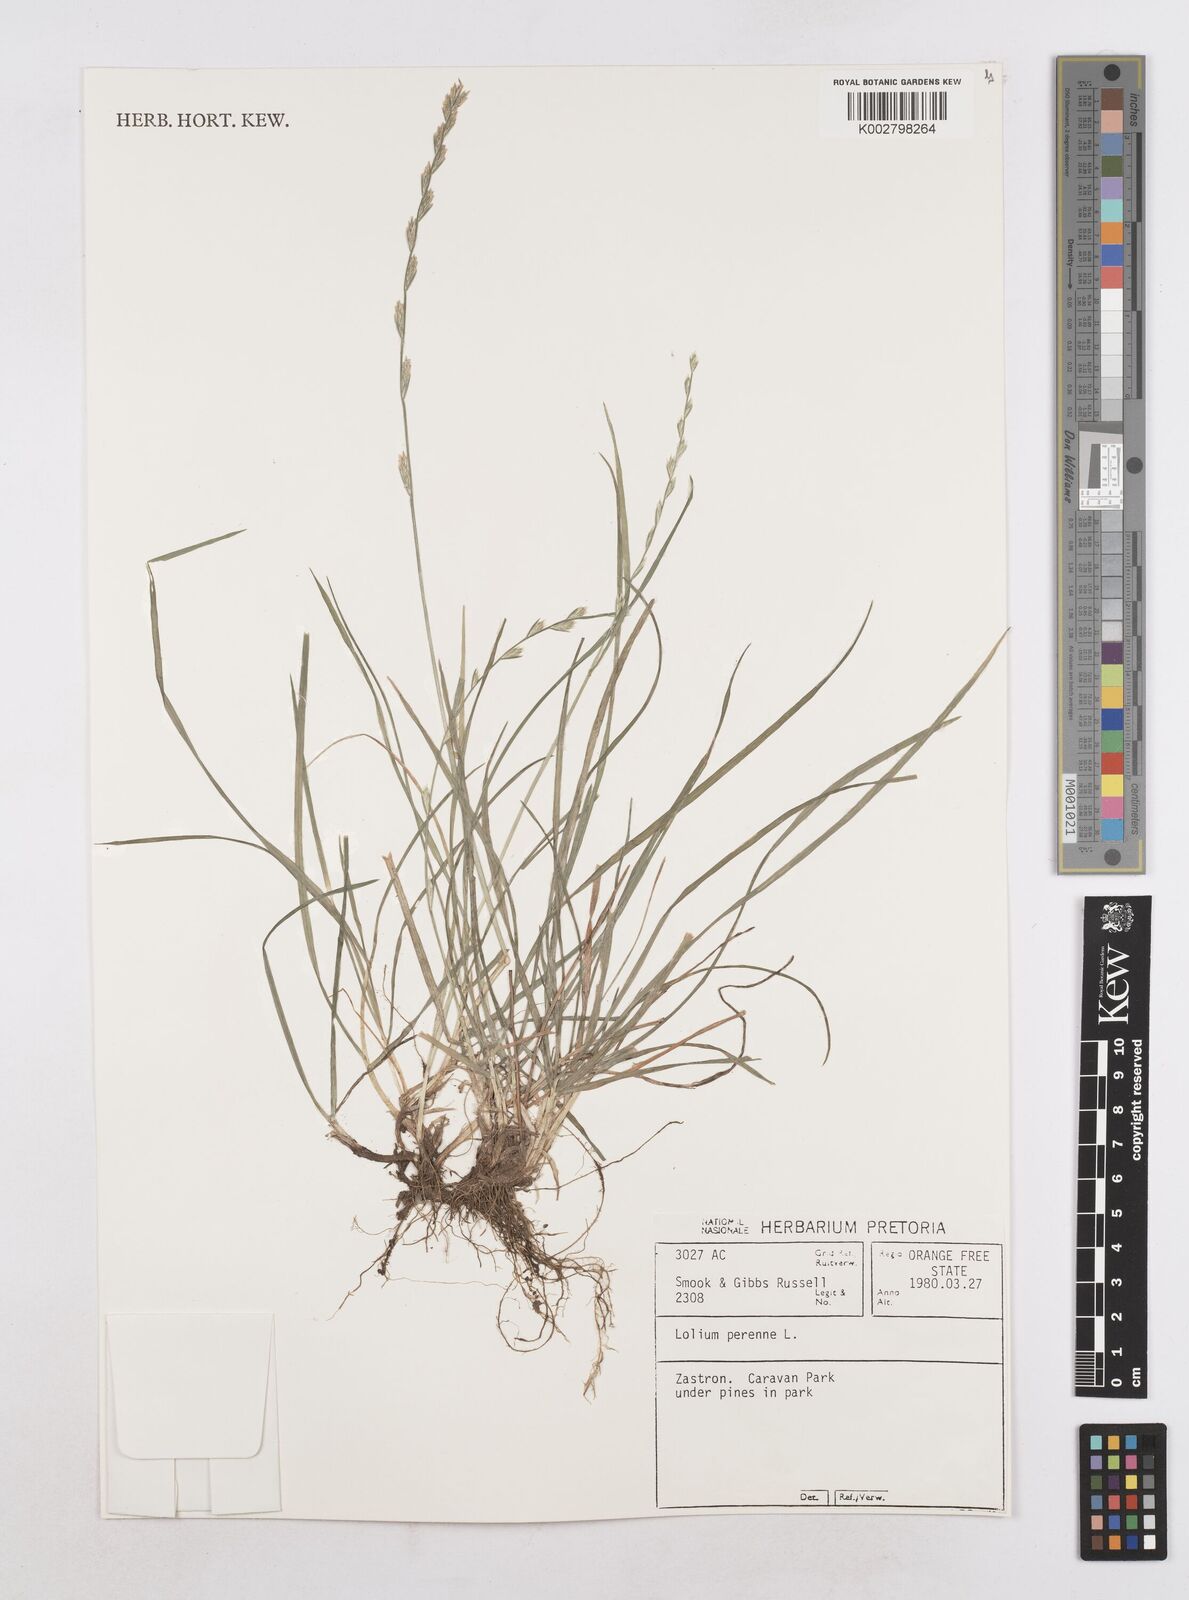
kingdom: Plantae
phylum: Tracheophyta
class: Liliopsida
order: Poales
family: Poaceae
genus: Lolium
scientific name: Lolium perenne
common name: Perennial ryegrass
